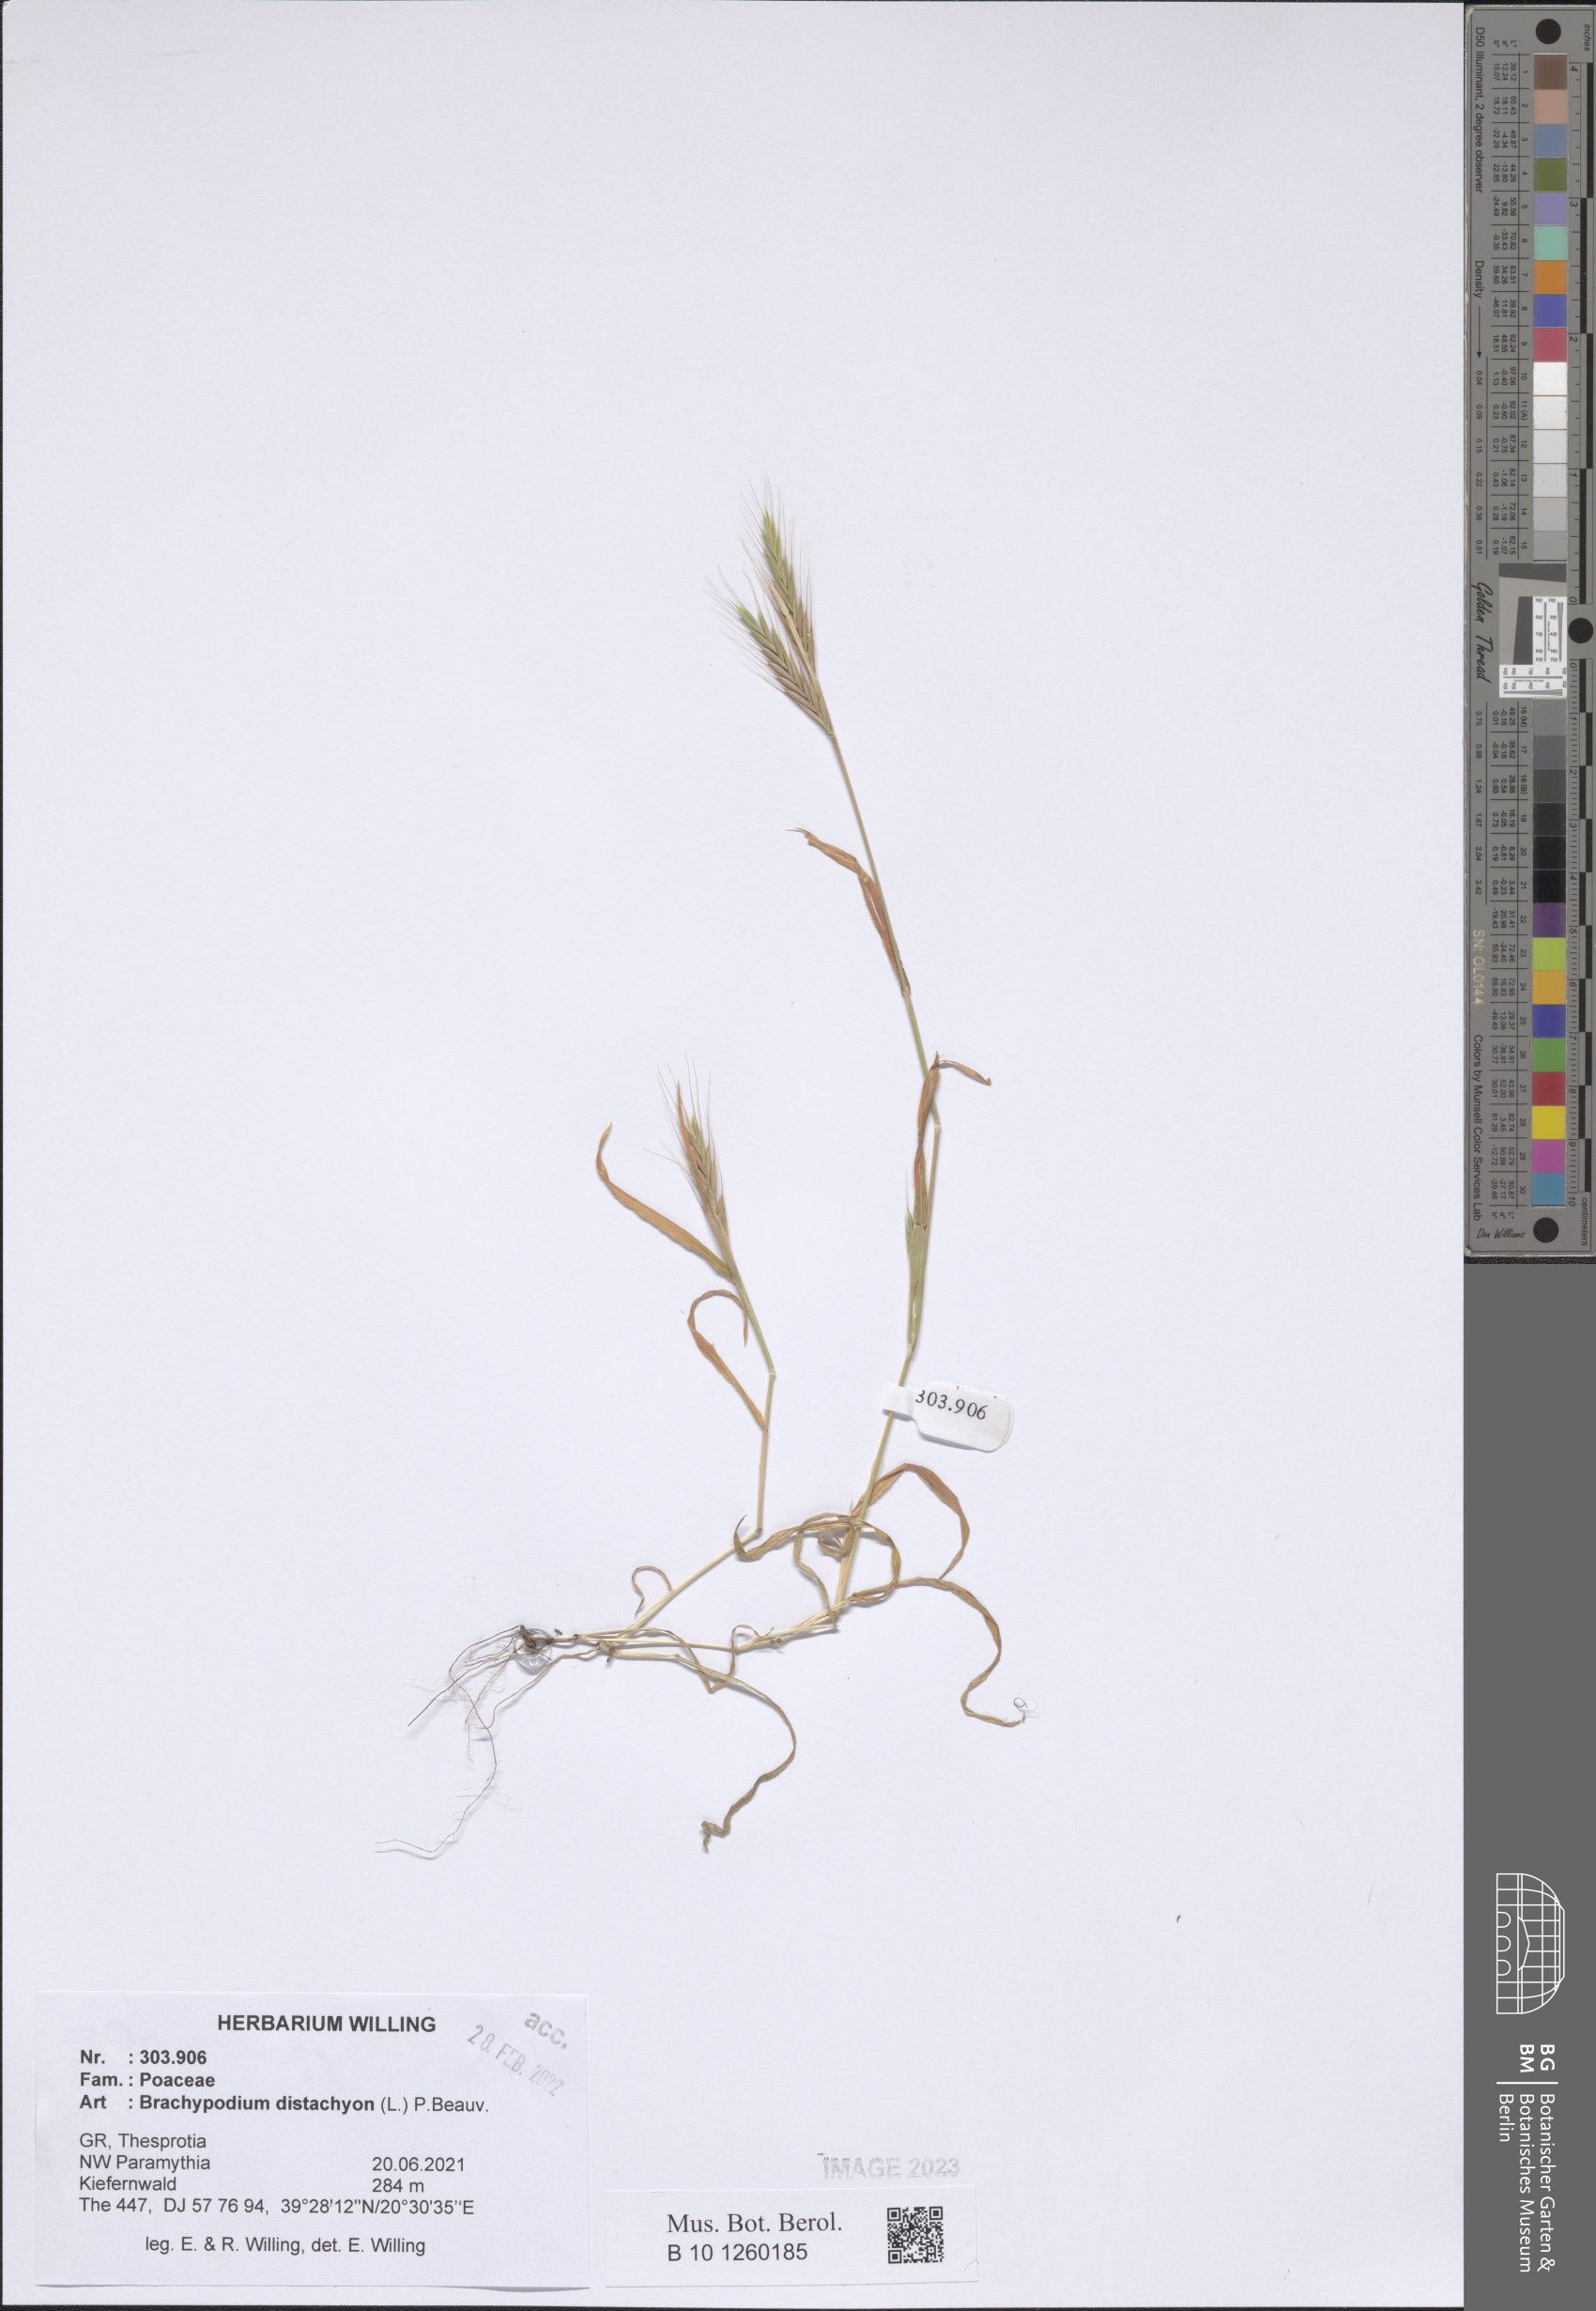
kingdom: Plantae
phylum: Tracheophyta
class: Liliopsida
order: Poales
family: Poaceae
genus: Brachypodium
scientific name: Brachypodium distachyon
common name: Stiff brome
